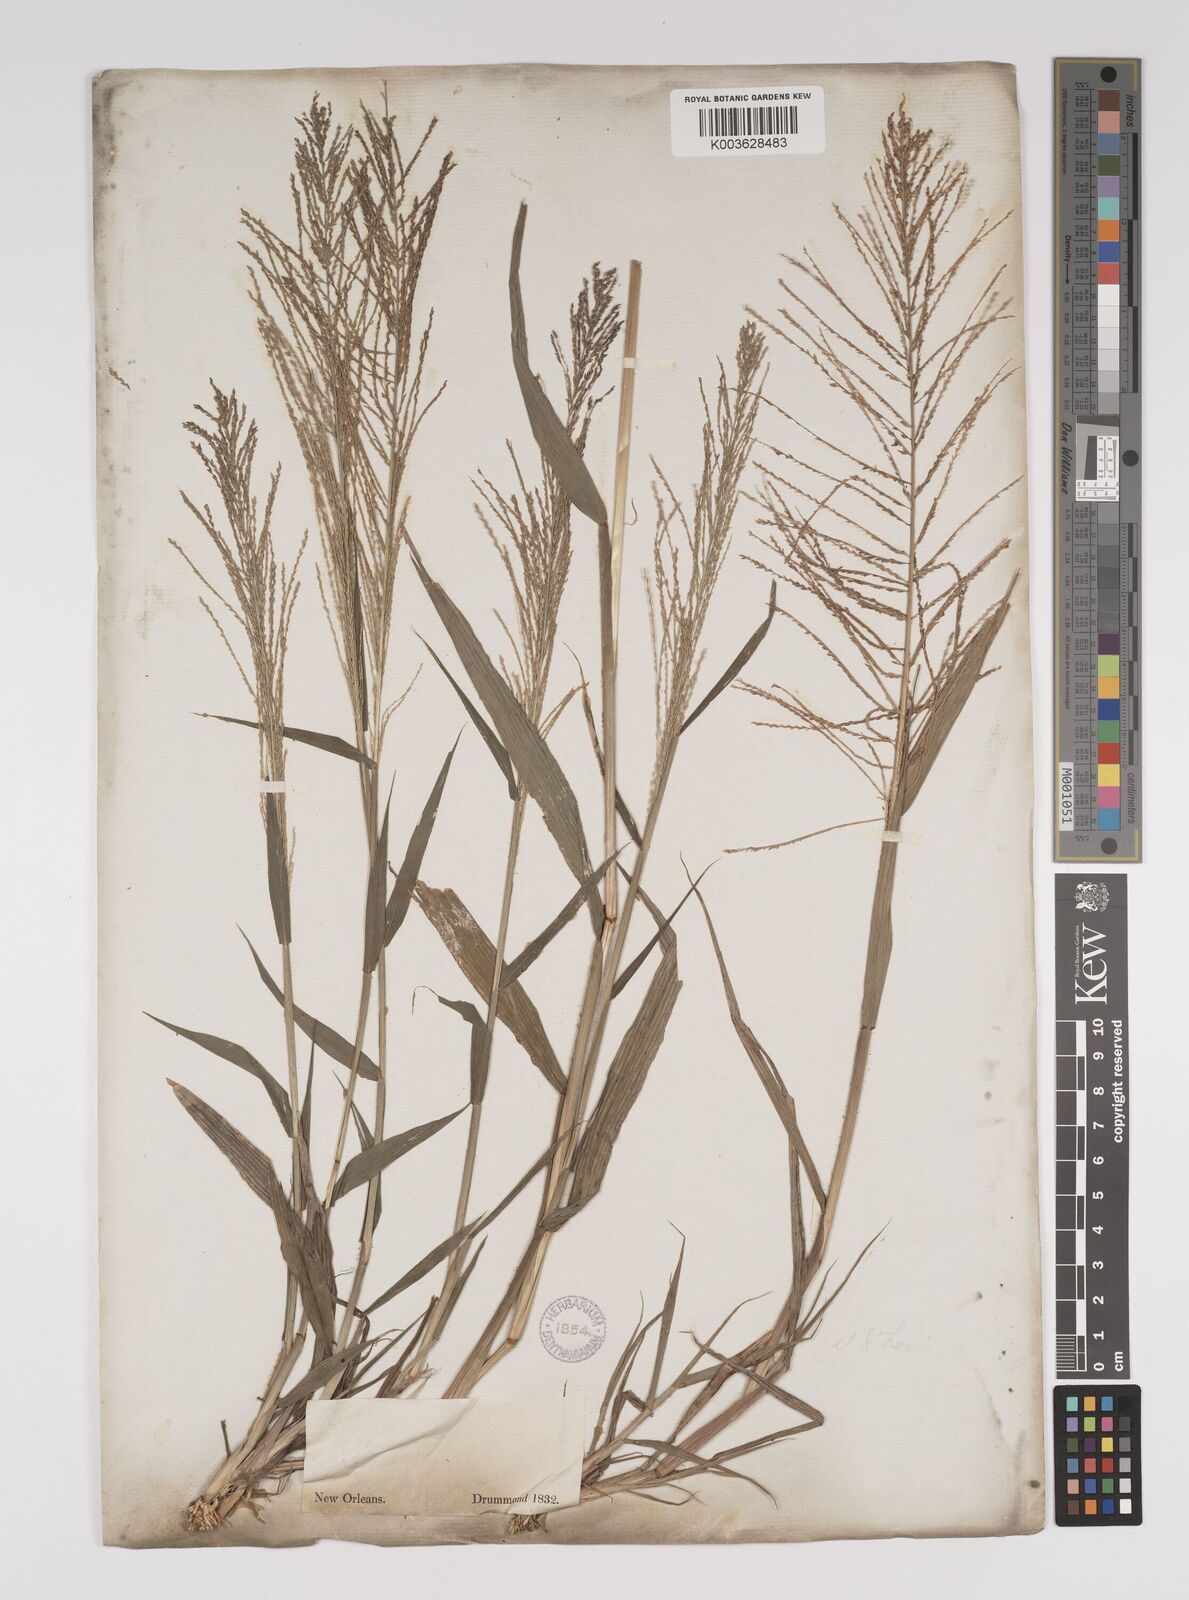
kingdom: Plantae
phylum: Tracheophyta
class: Liliopsida
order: Poales
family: Poaceae
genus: Leptochloa
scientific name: Leptochloa panicea
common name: Mucronate sprangletop
